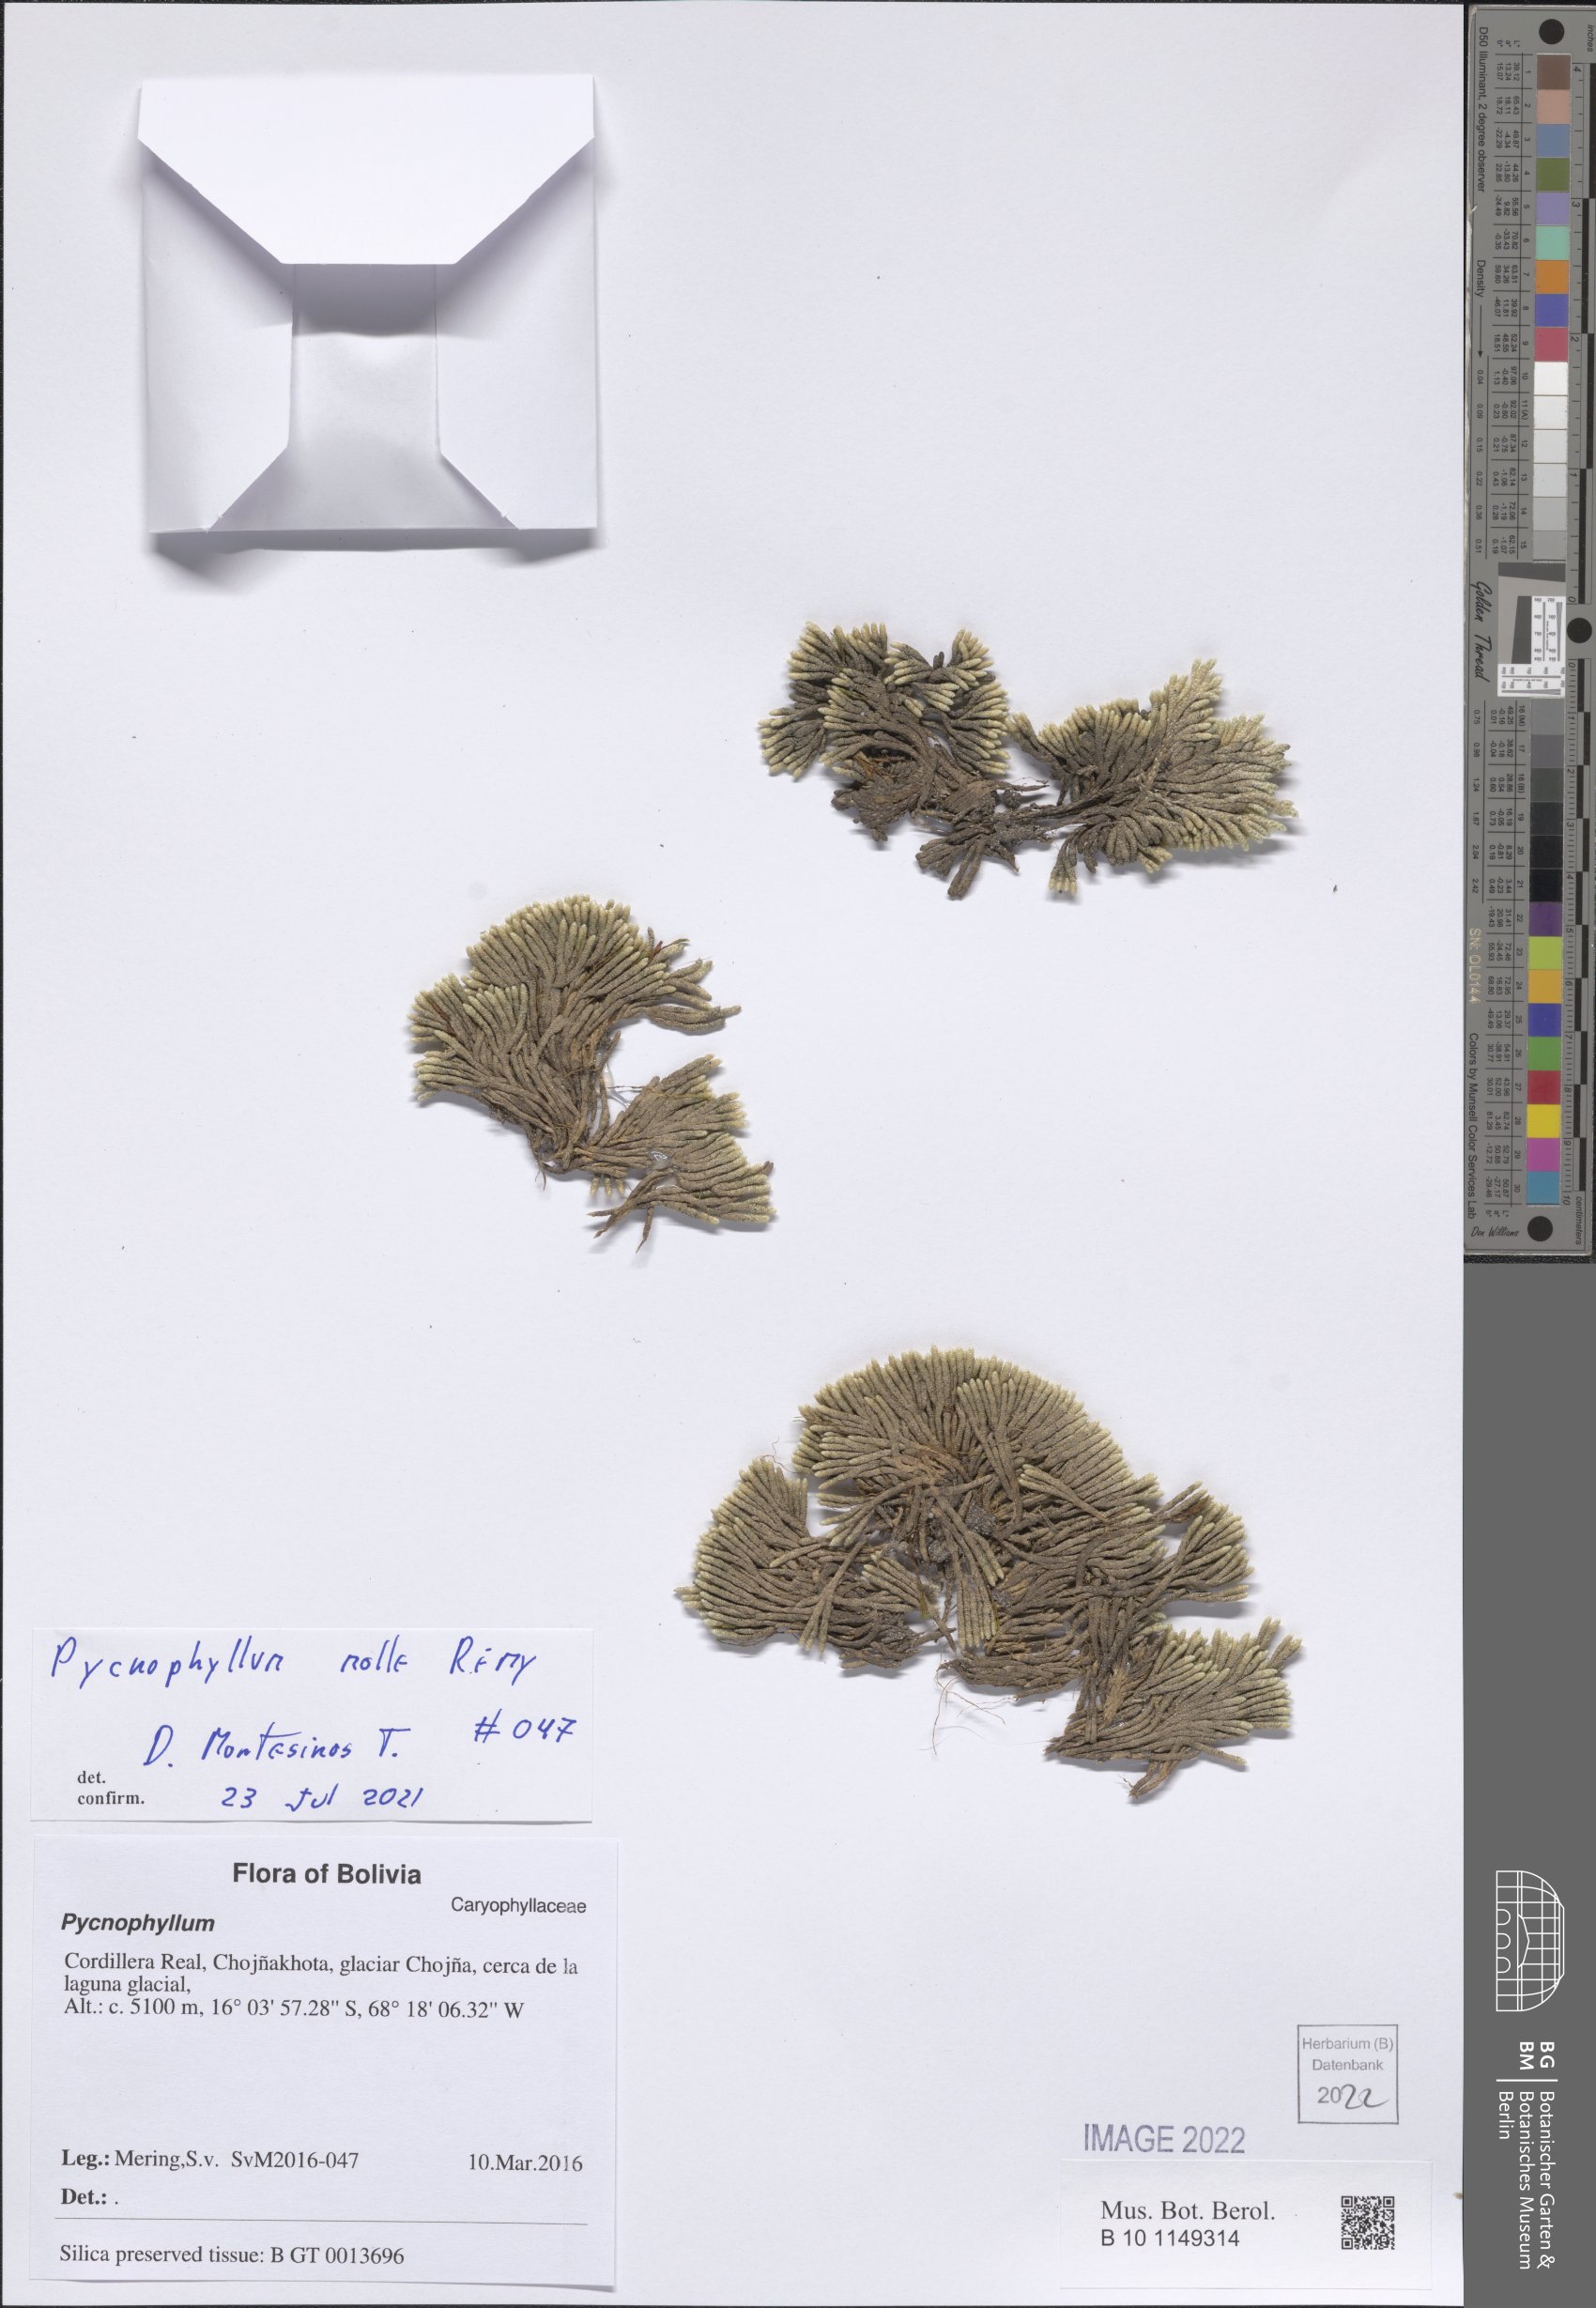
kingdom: Plantae
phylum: Tracheophyta
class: Magnoliopsida
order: Caryophyllales
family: Caryophyllaceae
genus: Pycnophyllum
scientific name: Pycnophyllum molle
